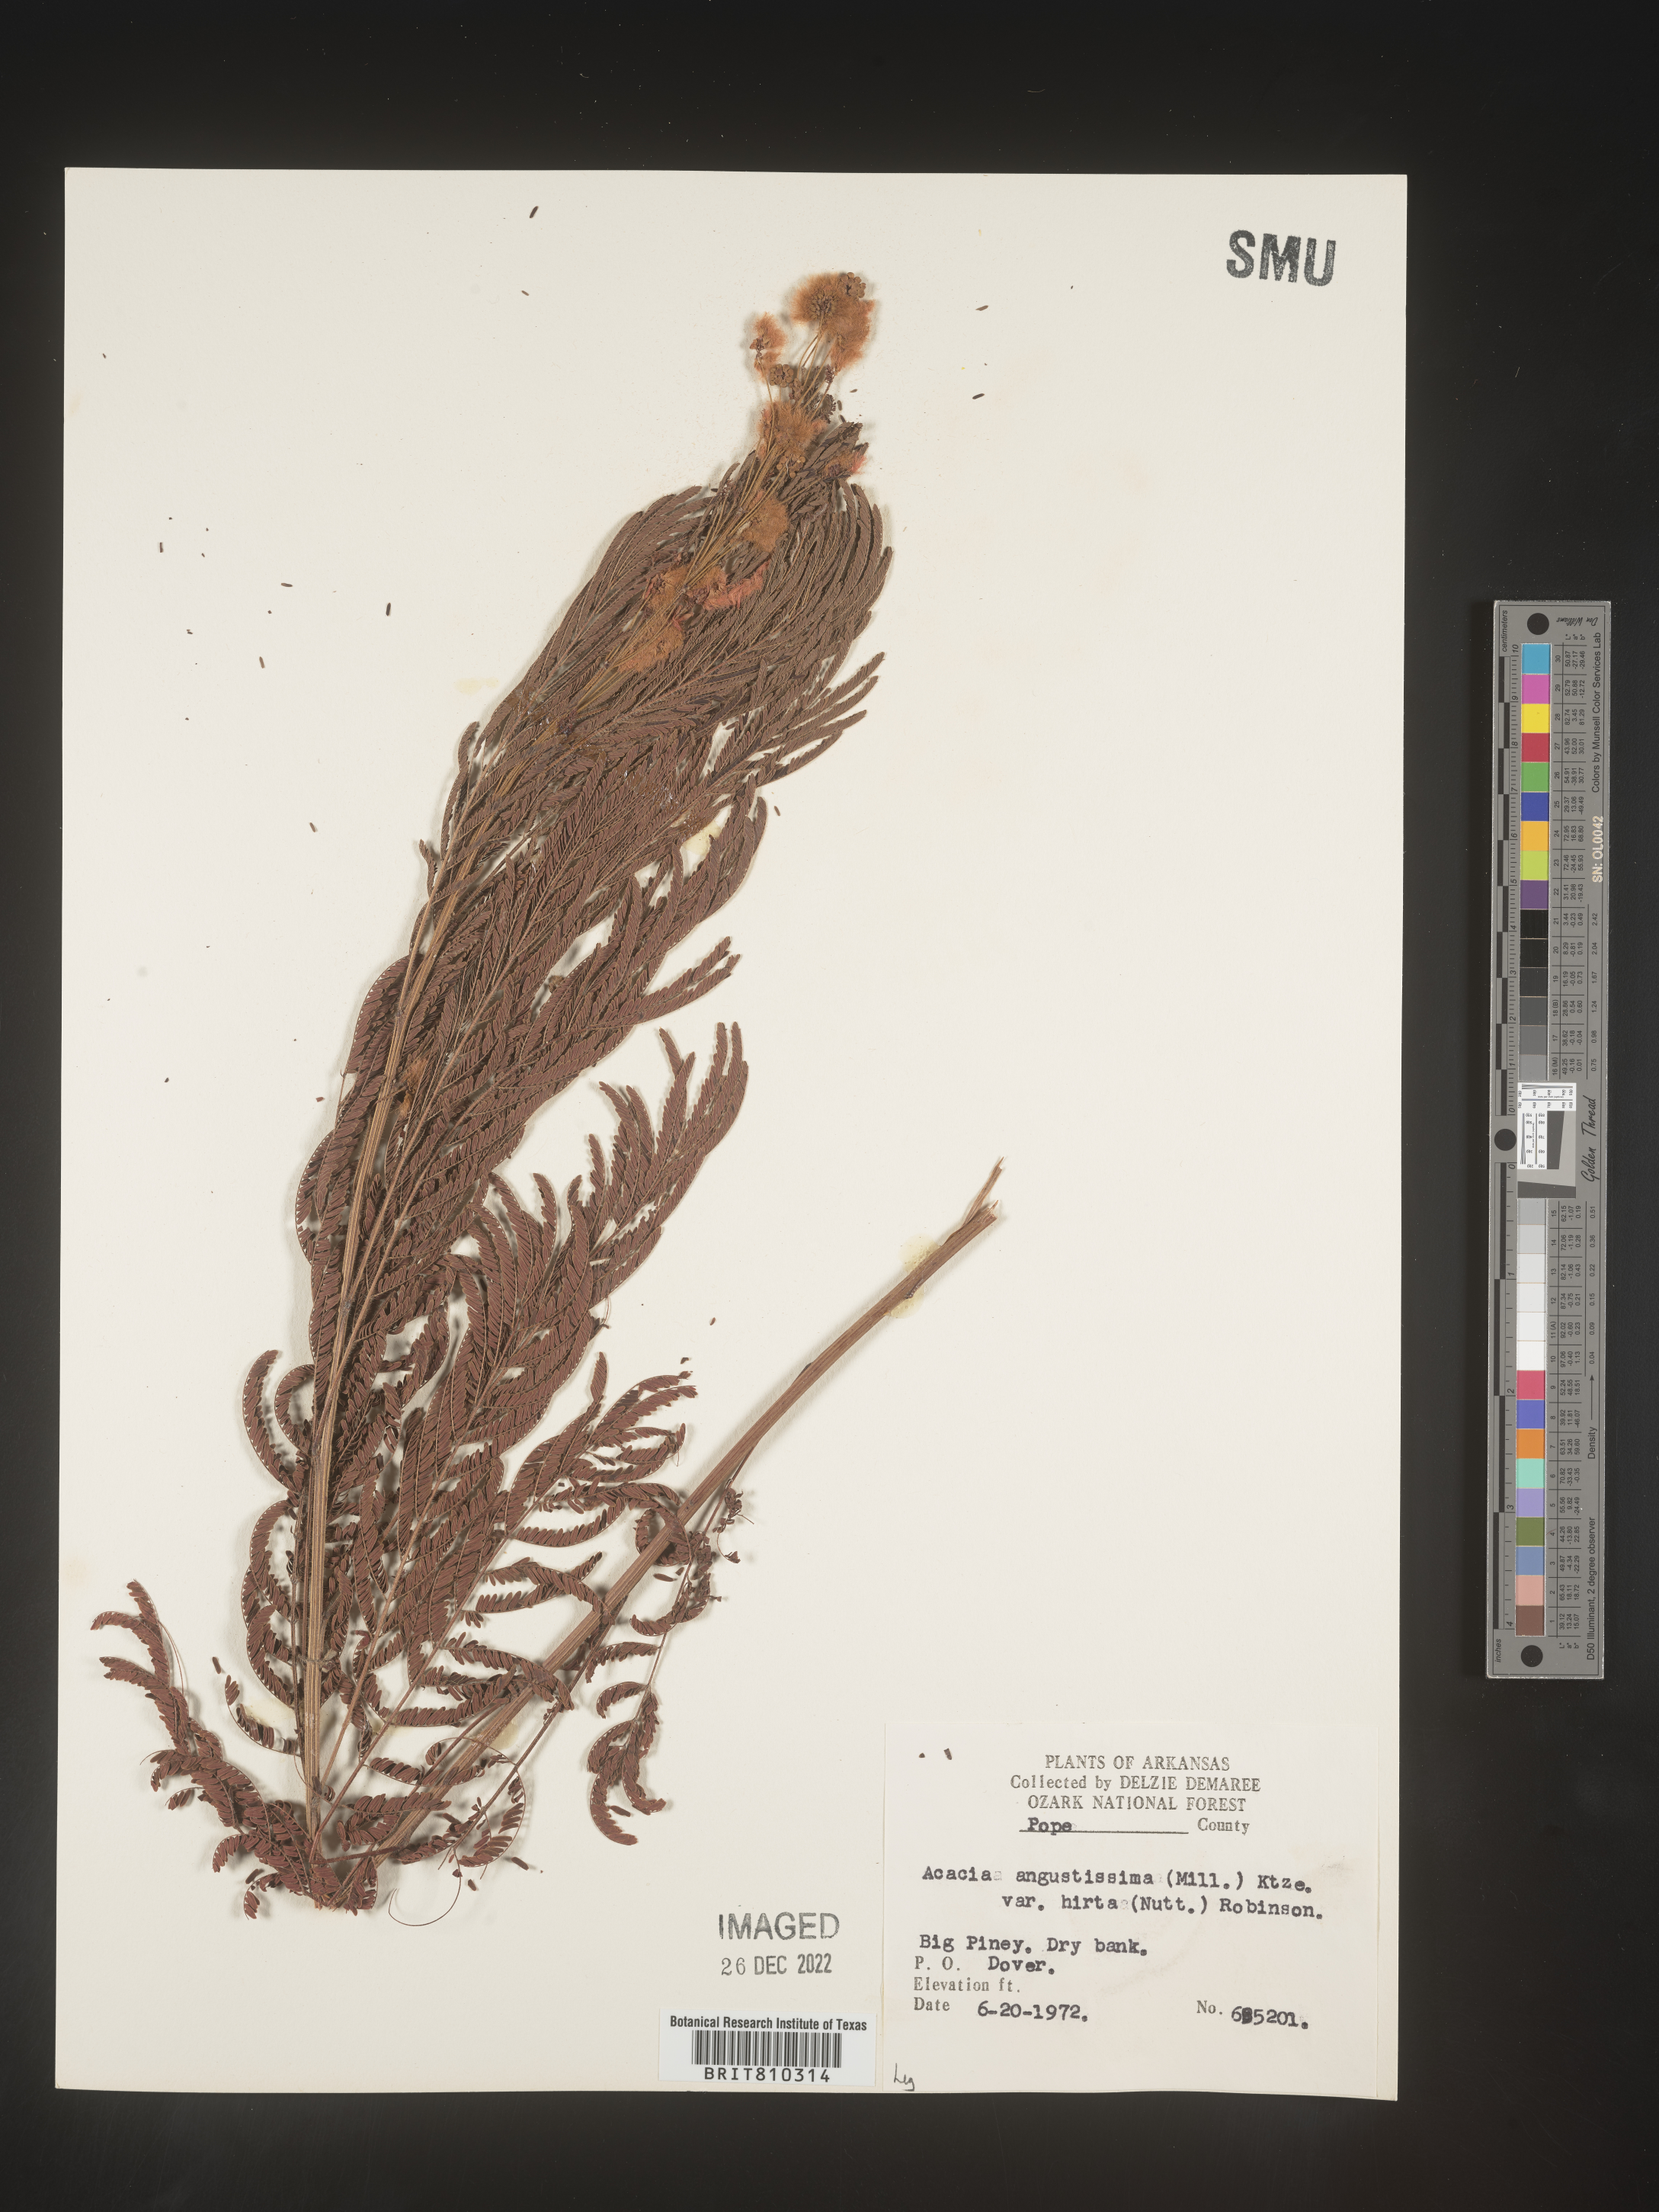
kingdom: Plantae
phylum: Tracheophyta
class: Magnoliopsida
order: Fabales
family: Fabaceae
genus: Acaciella
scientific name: Acaciella angustissima
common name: Prairie acacia
